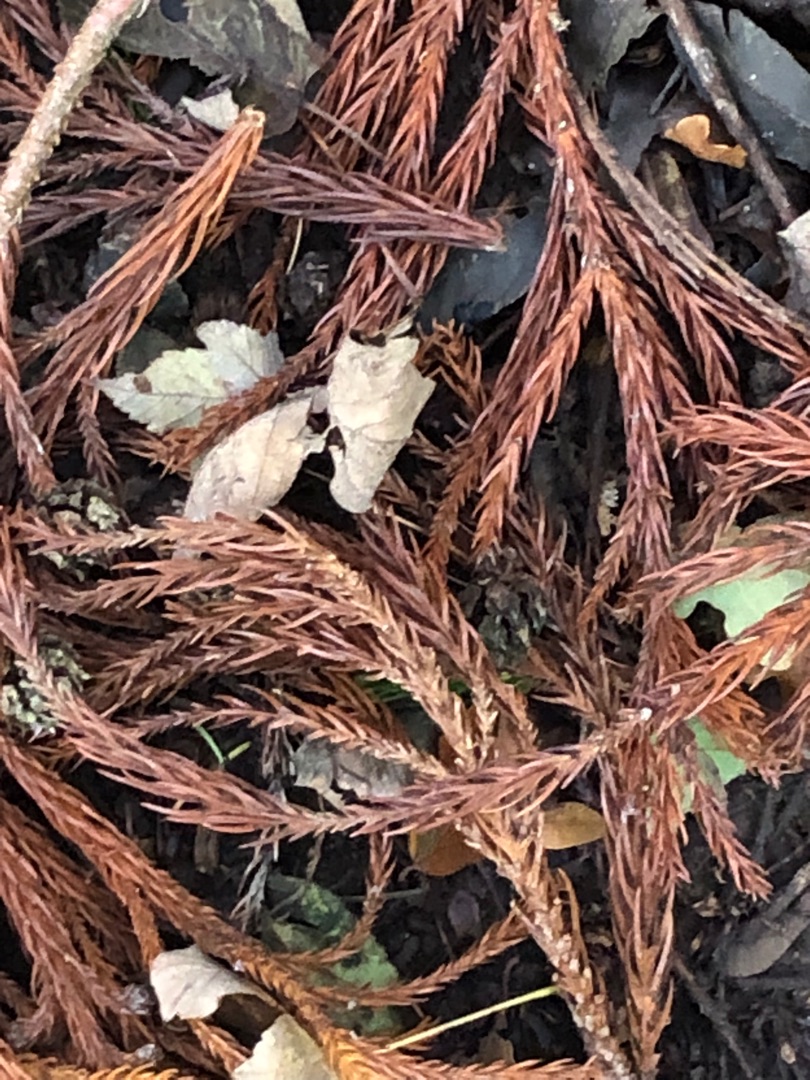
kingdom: Plantae
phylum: Tracheophyta
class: Pinopsida
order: Pinales
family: Cupressaceae
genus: Cryptomeria
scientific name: Cryptomeria japonica
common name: Kryptomeria
